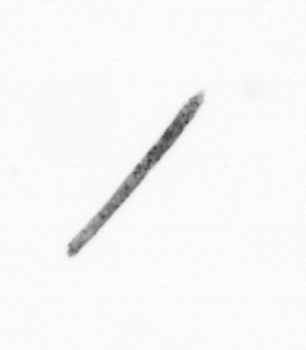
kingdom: Chromista
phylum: Ochrophyta
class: Bacillariophyceae
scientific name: Bacillariophyceae
